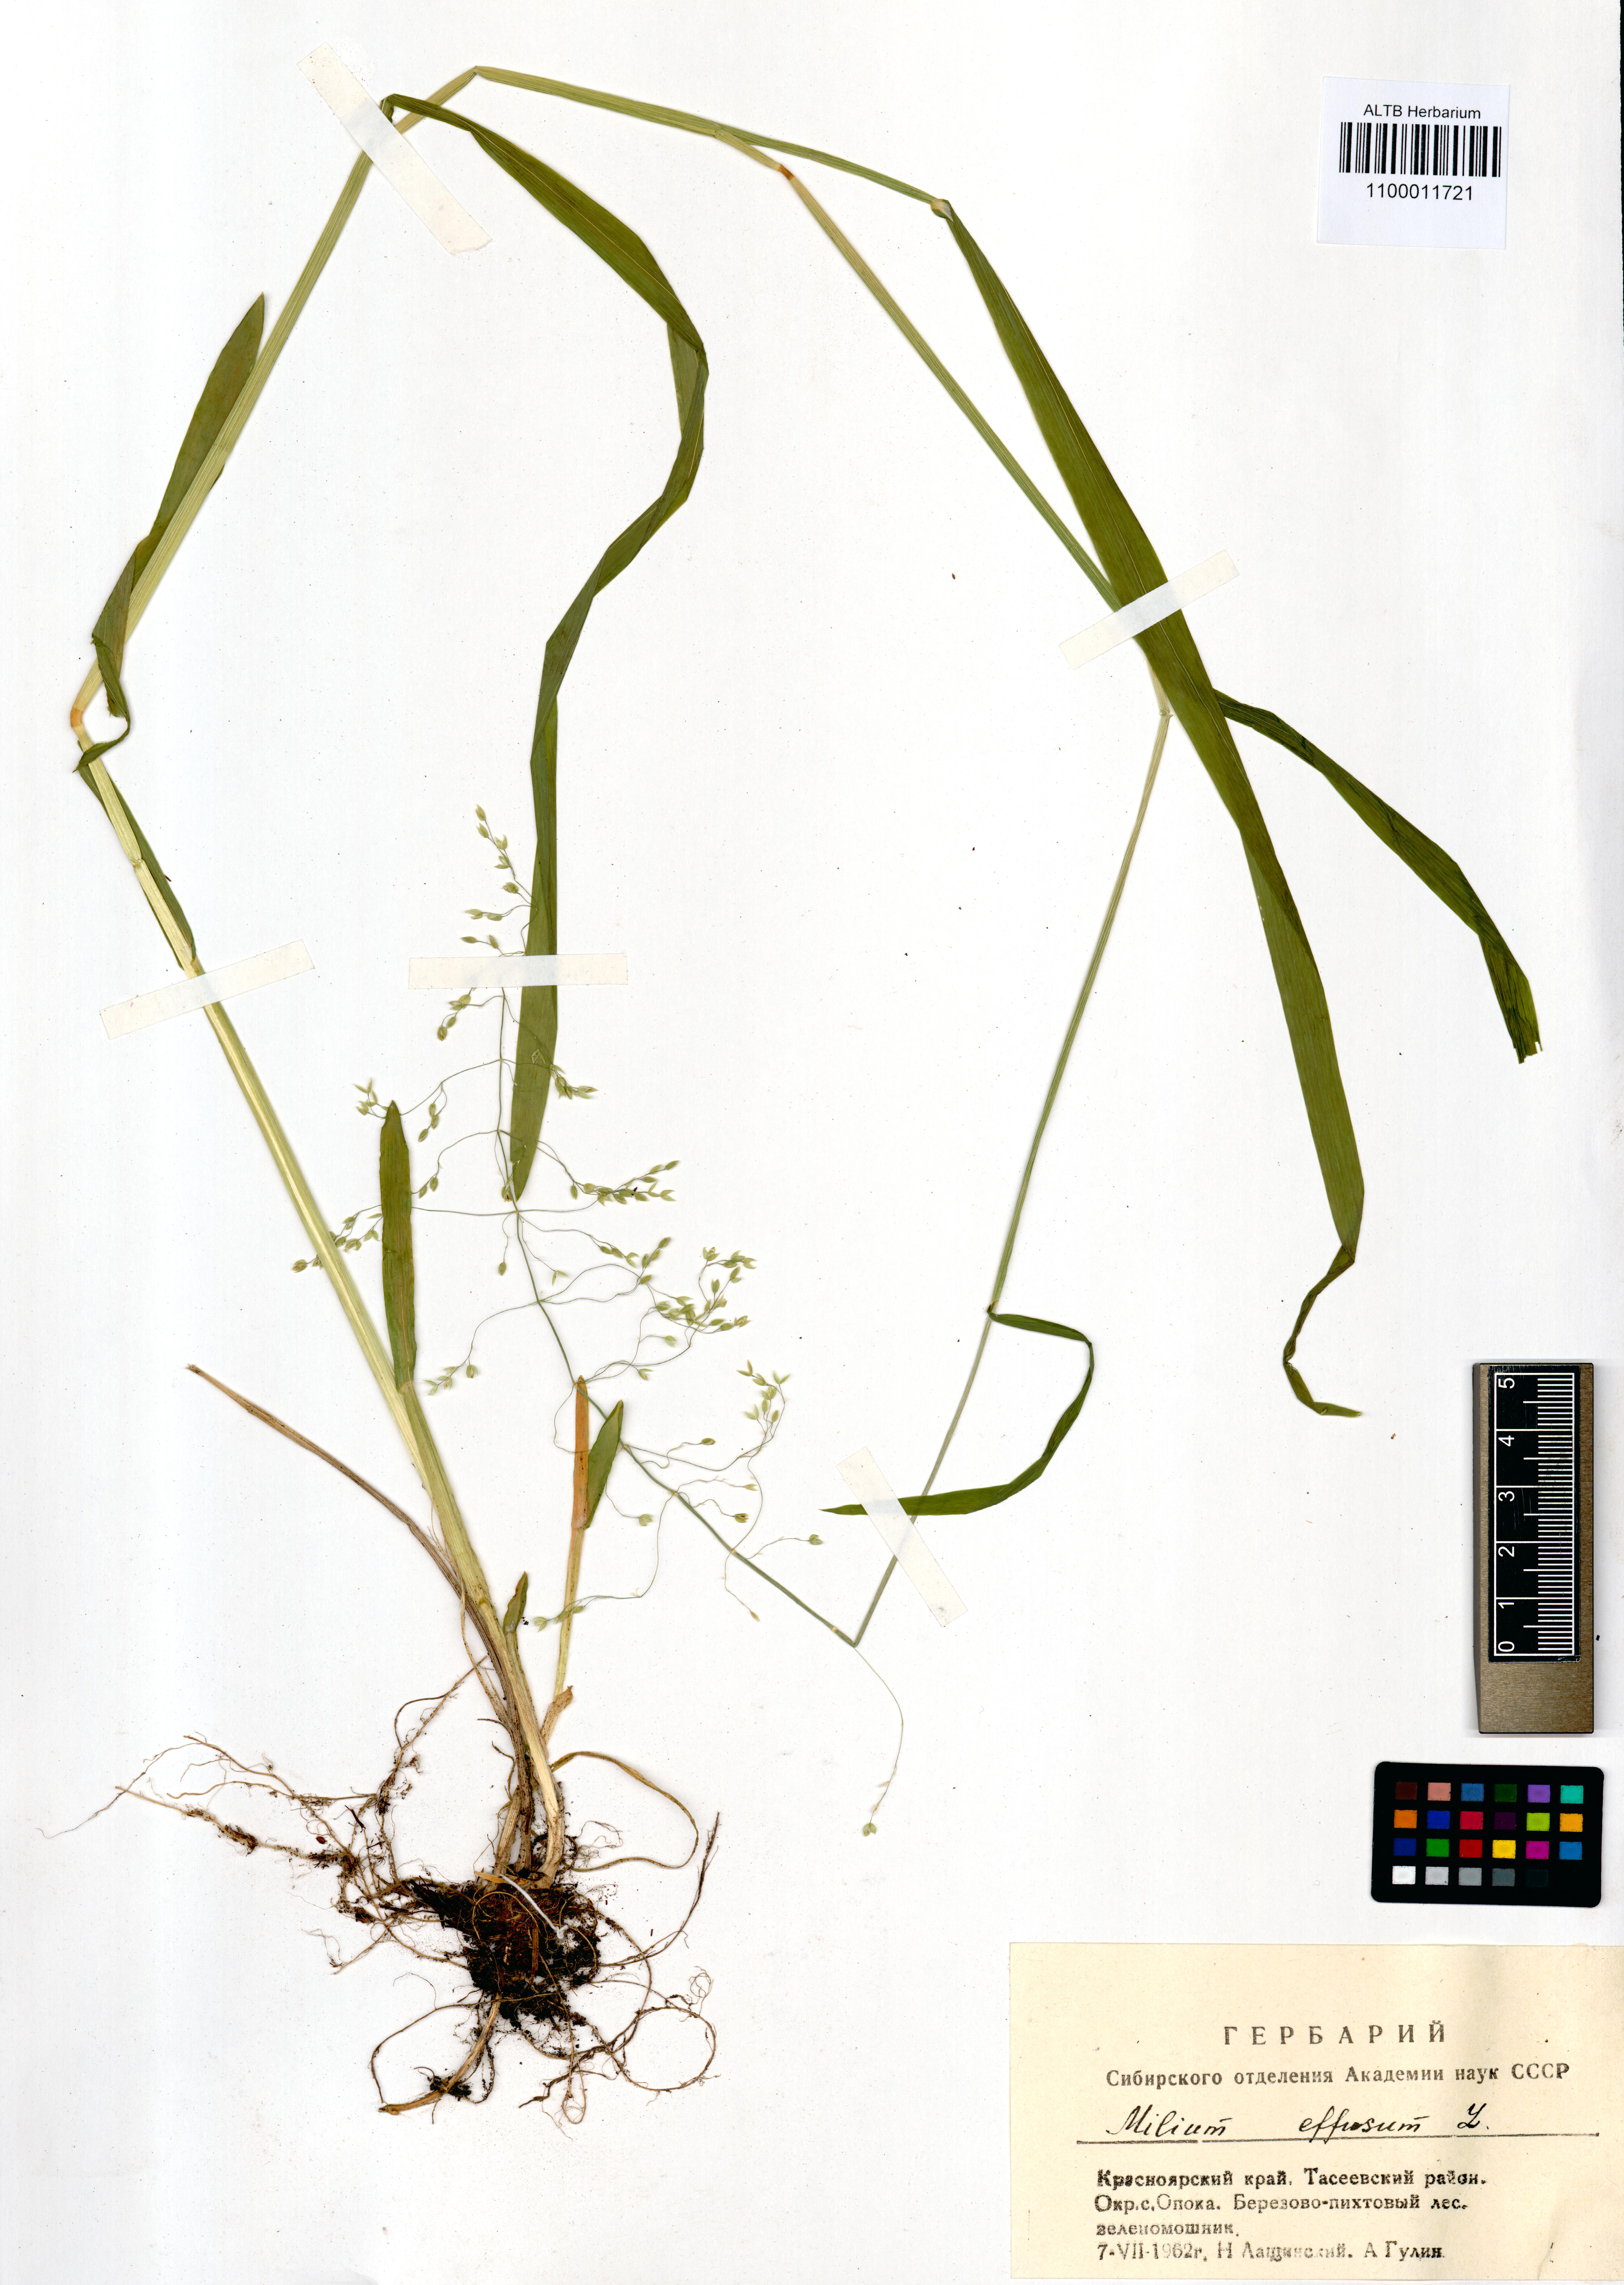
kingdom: Plantae
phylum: Tracheophyta
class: Liliopsida
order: Poales
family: Poaceae
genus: Milium
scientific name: Milium effusum
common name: Wood millet
